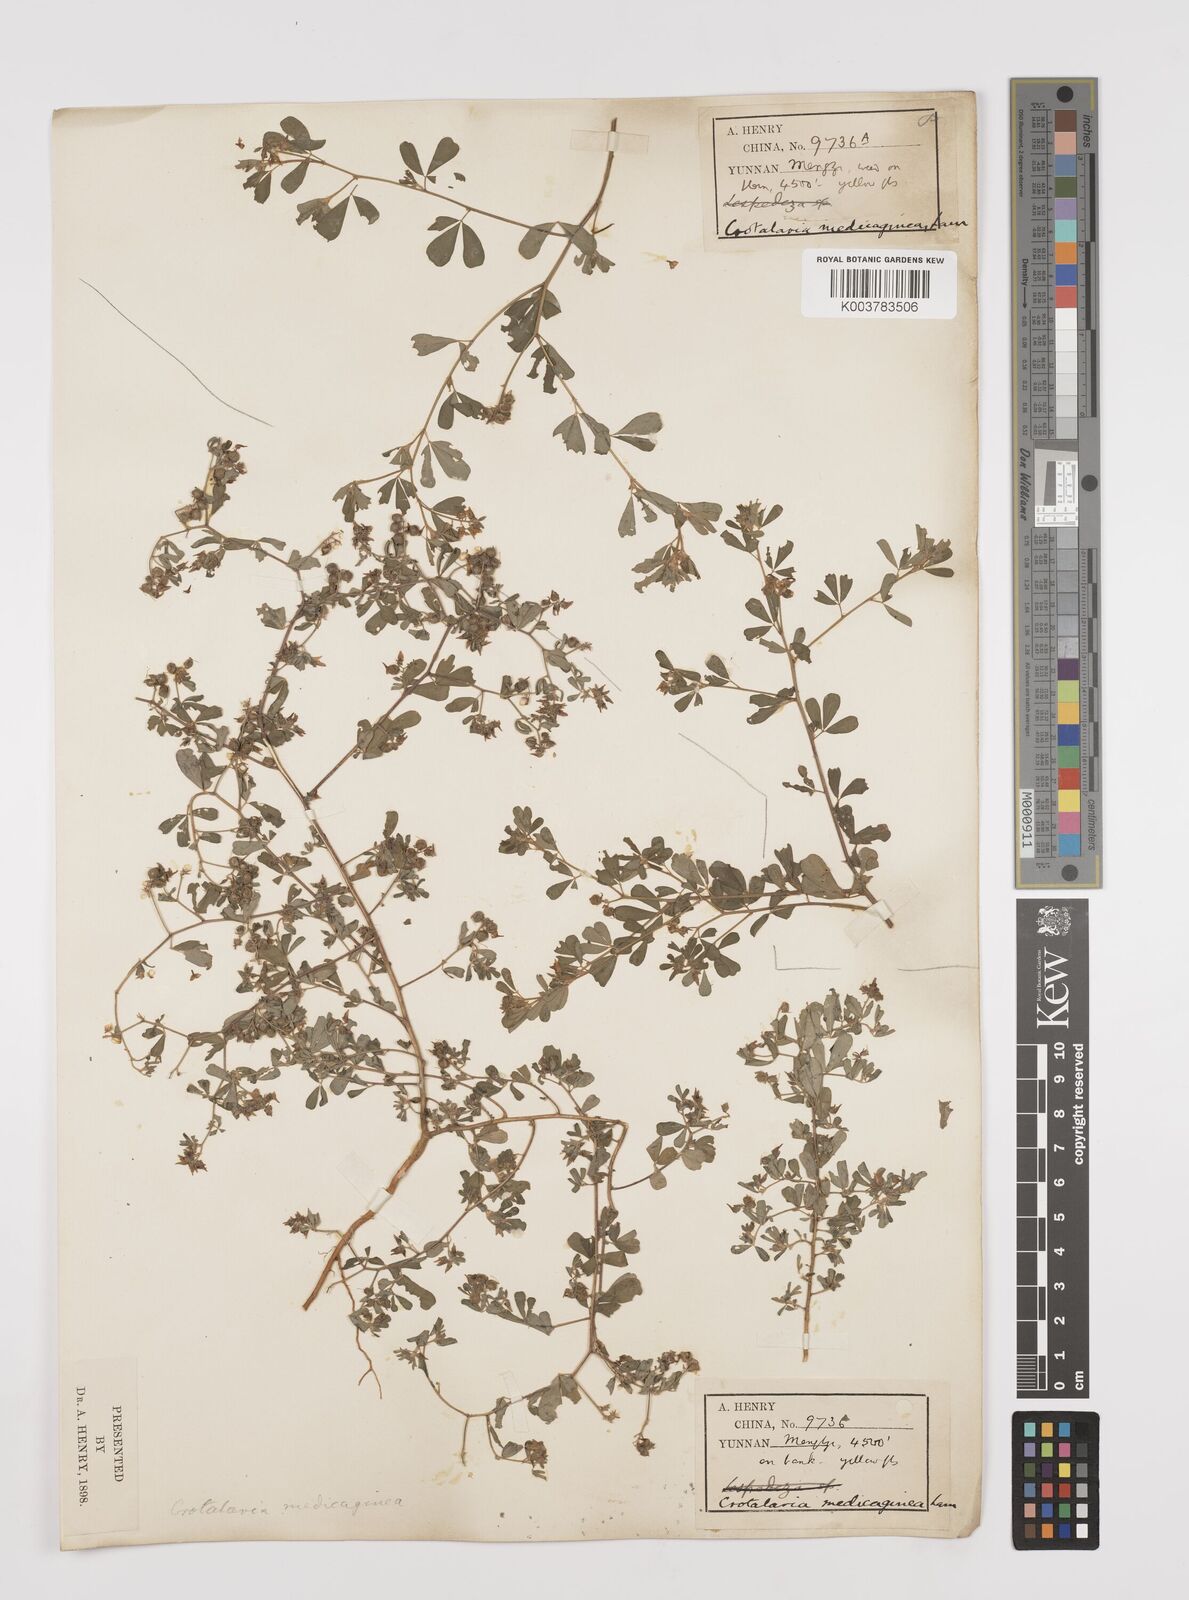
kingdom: Plantae
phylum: Tracheophyta
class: Magnoliopsida
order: Fabales
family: Fabaceae
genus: Crotalaria
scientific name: Crotalaria medicaginea
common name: Trefoil rattlepod
